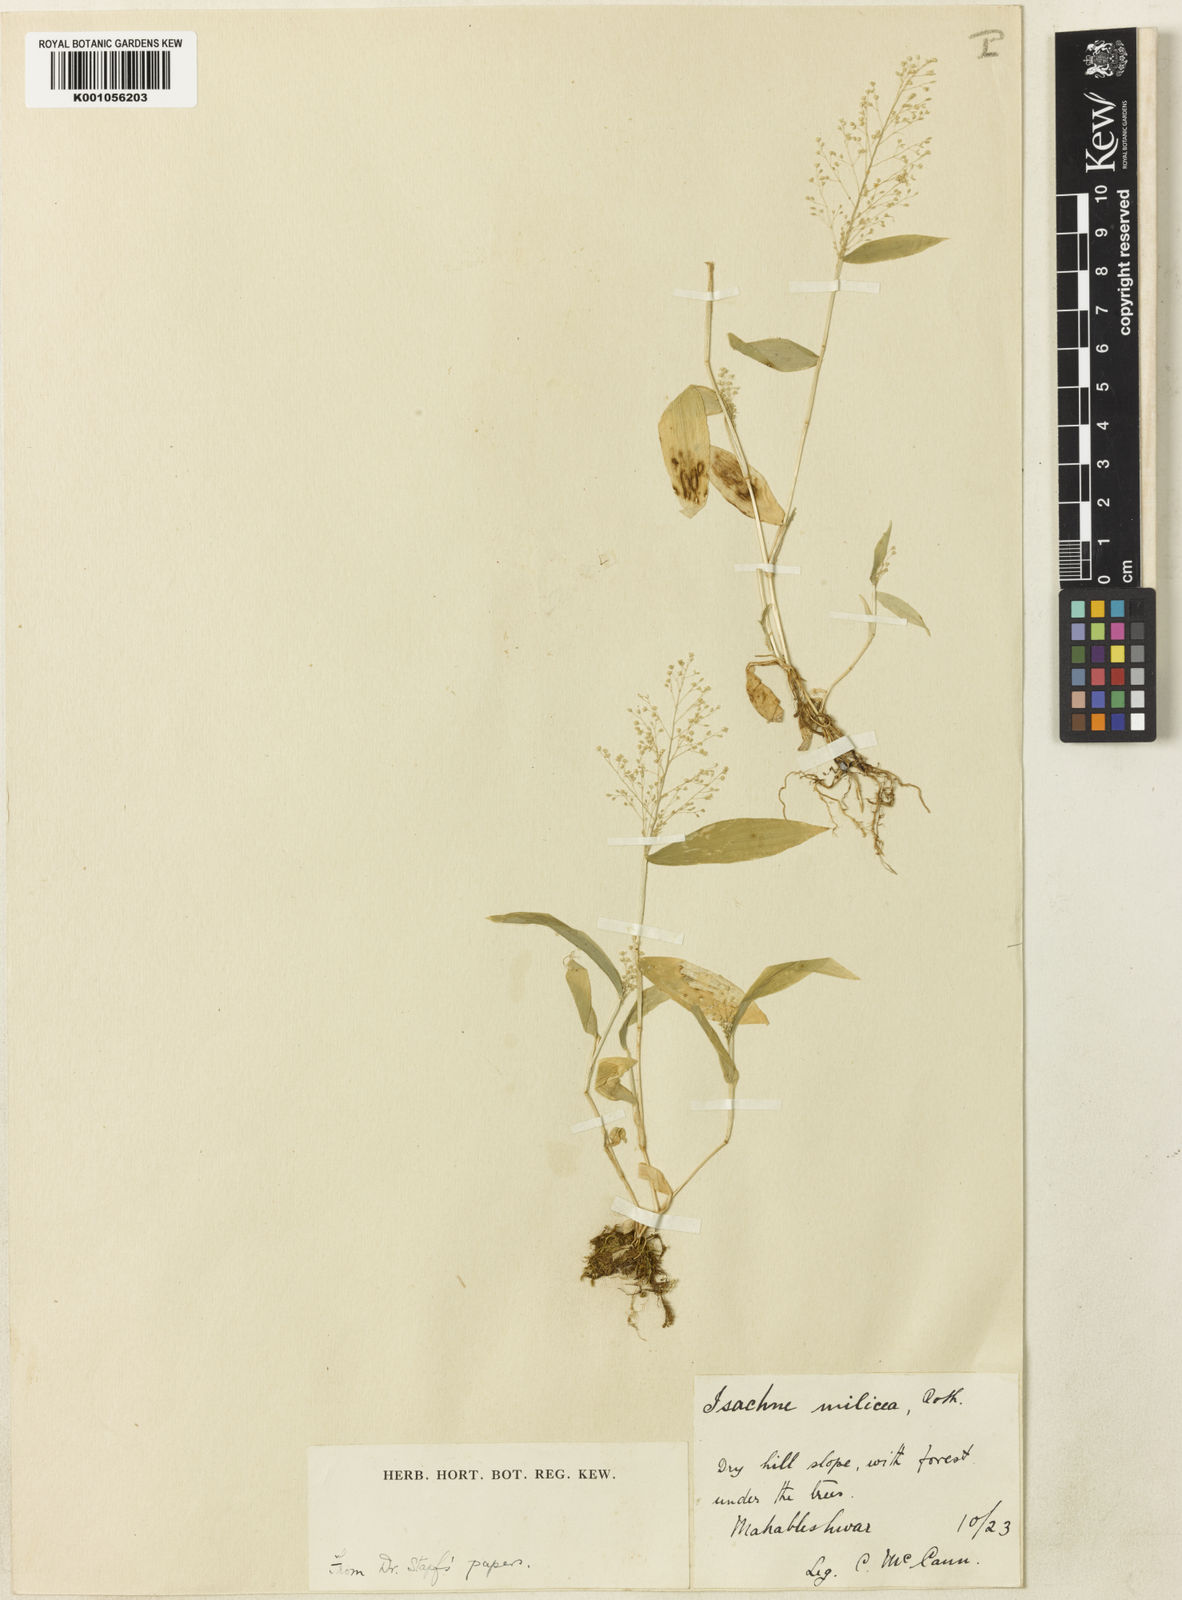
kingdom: Plantae
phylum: Tracheophyta
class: Liliopsida
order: Poales
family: Poaceae
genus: Isachne
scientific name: Isachne gracilis
